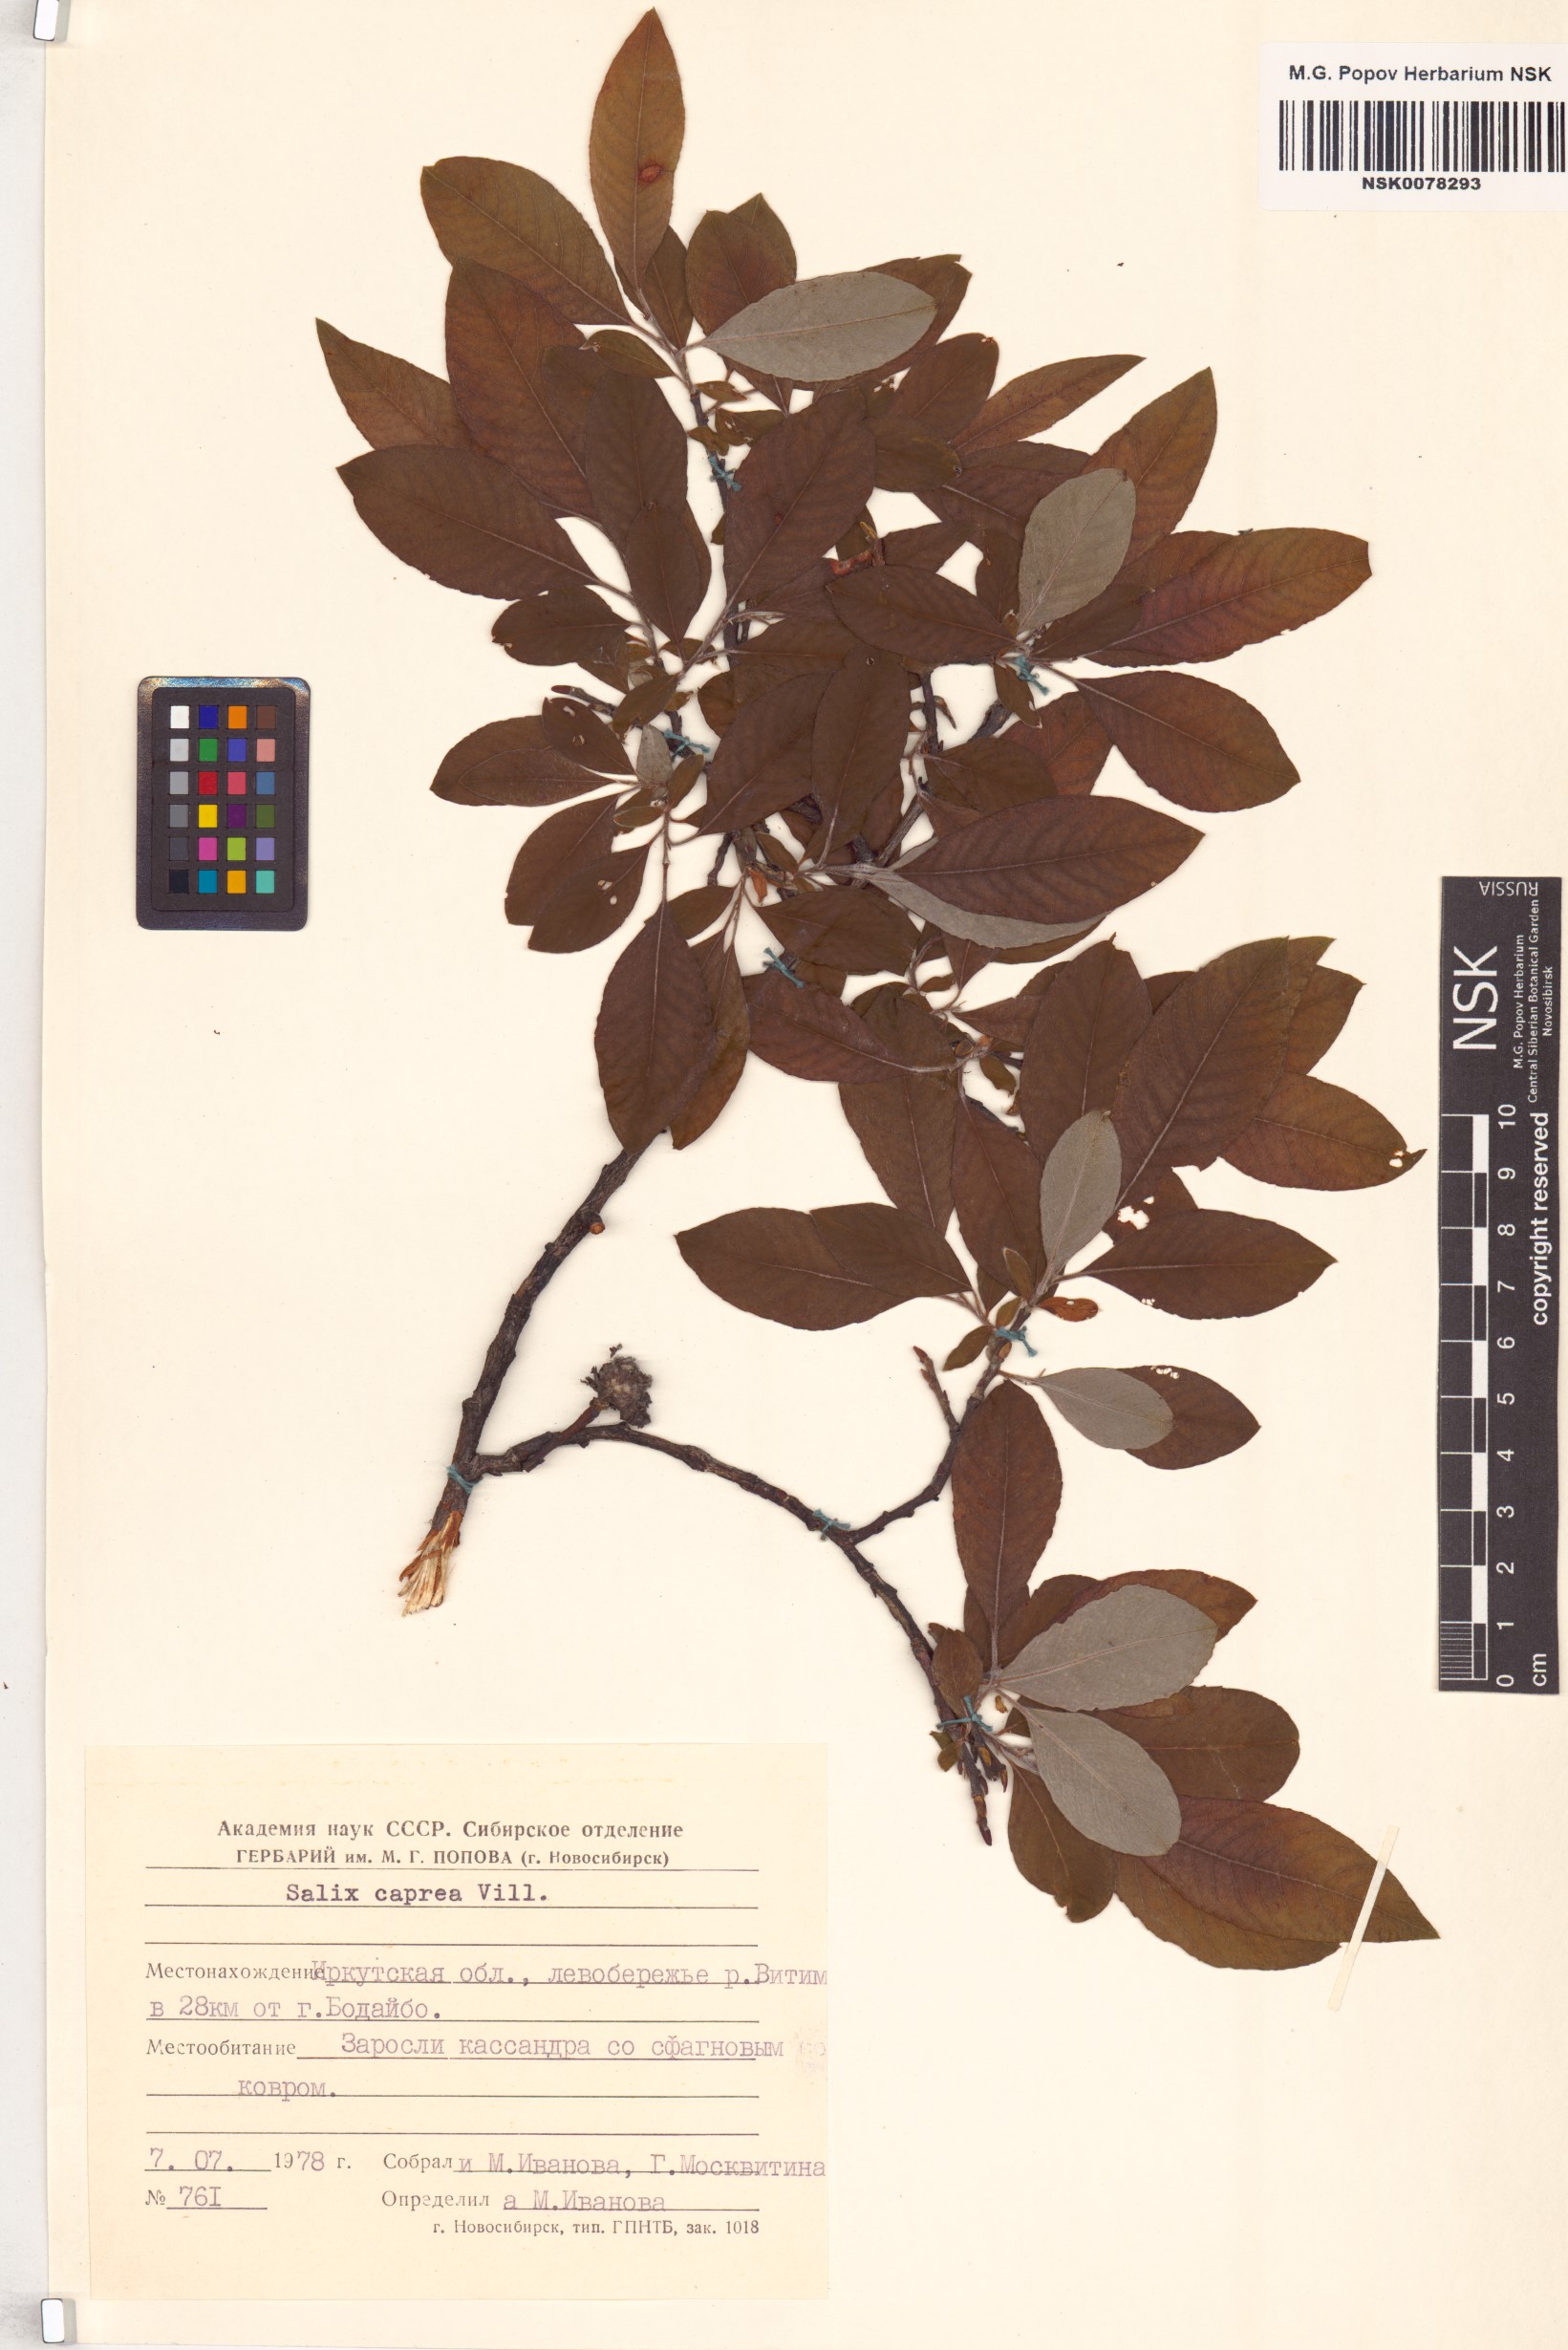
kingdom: Plantae
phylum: Tracheophyta
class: Magnoliopsida
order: Malpighiales
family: Salicaceae
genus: Salix
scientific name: Salix caprea
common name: Goat willow
